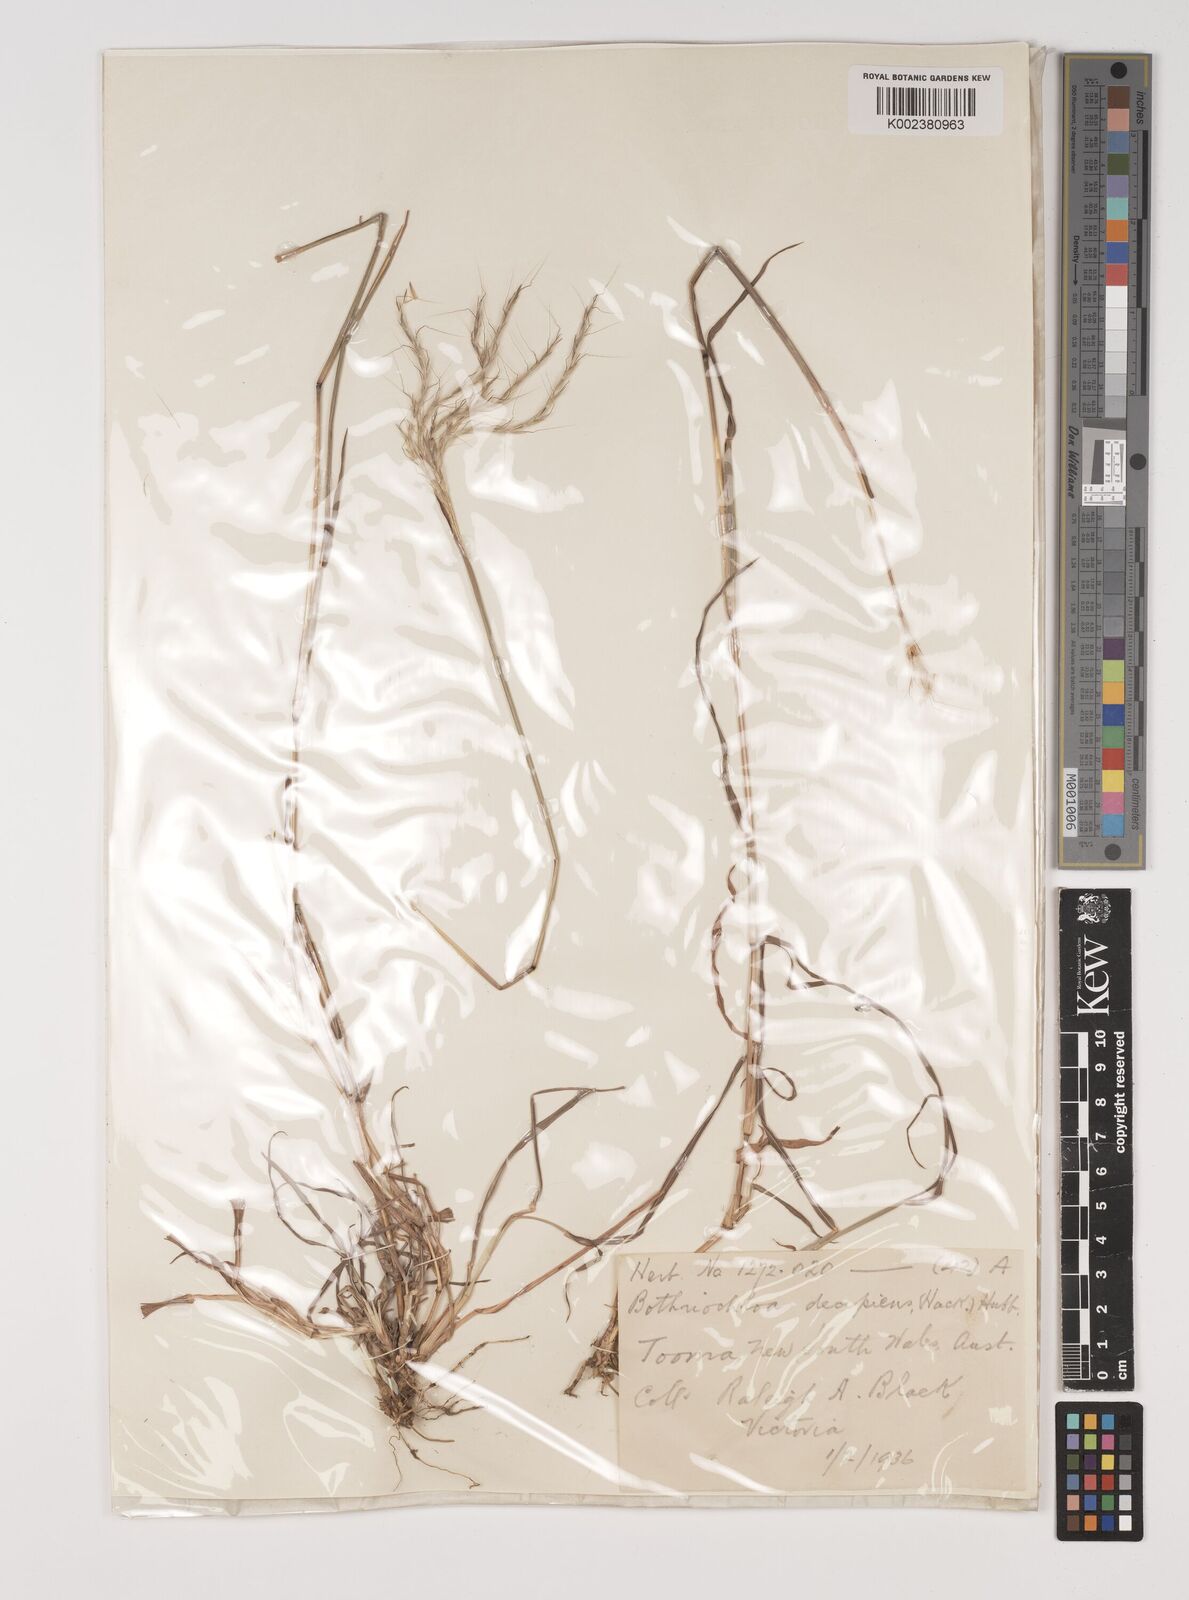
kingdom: Plantae
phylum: Tracheophyta
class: Liliopsida
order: Poales
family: Poaceae
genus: Bothriochloa
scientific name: Bothriochloa decipiens
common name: Pitted-bluegrass
